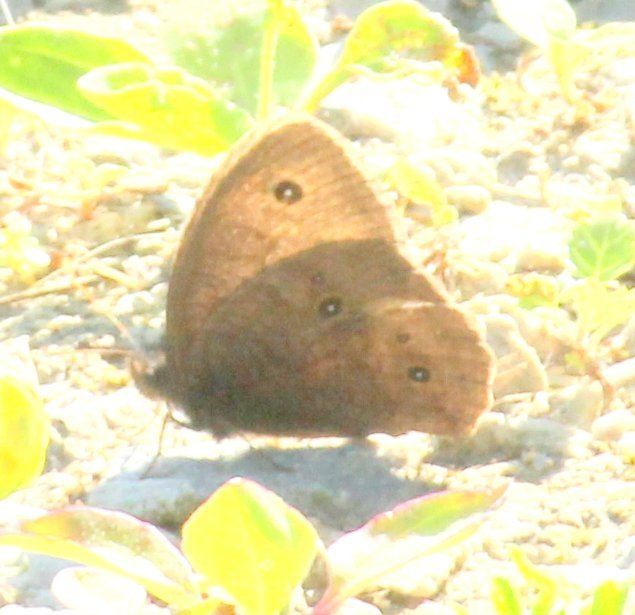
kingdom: Animalia
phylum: Arthropoda
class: Insecta
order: Lepidoptera
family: Nymphalidae
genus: Euptychia
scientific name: Euptychia cymela
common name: Little Wood Satyr
